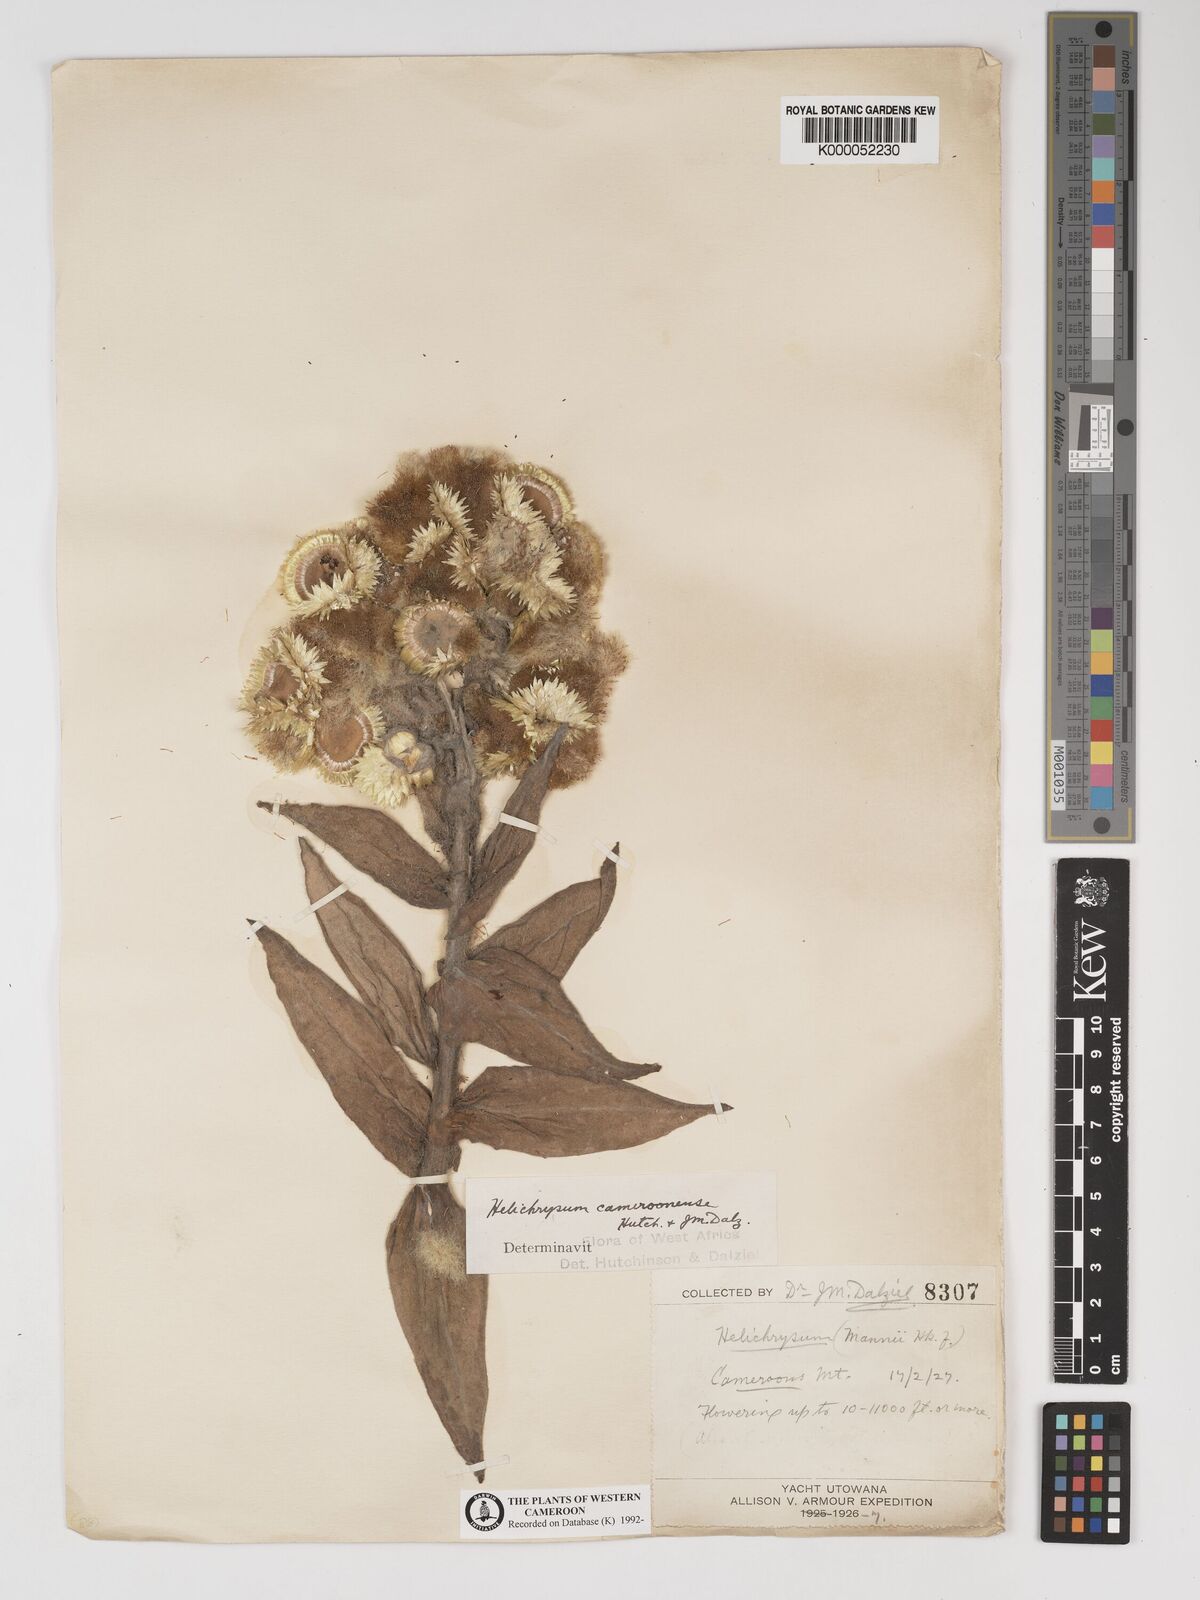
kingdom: Plantae
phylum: Tracheophyta
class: Magnoliopsida
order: Asterales
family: Asteraceae
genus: Helichrysum
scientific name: Helichrysum cameroonense
